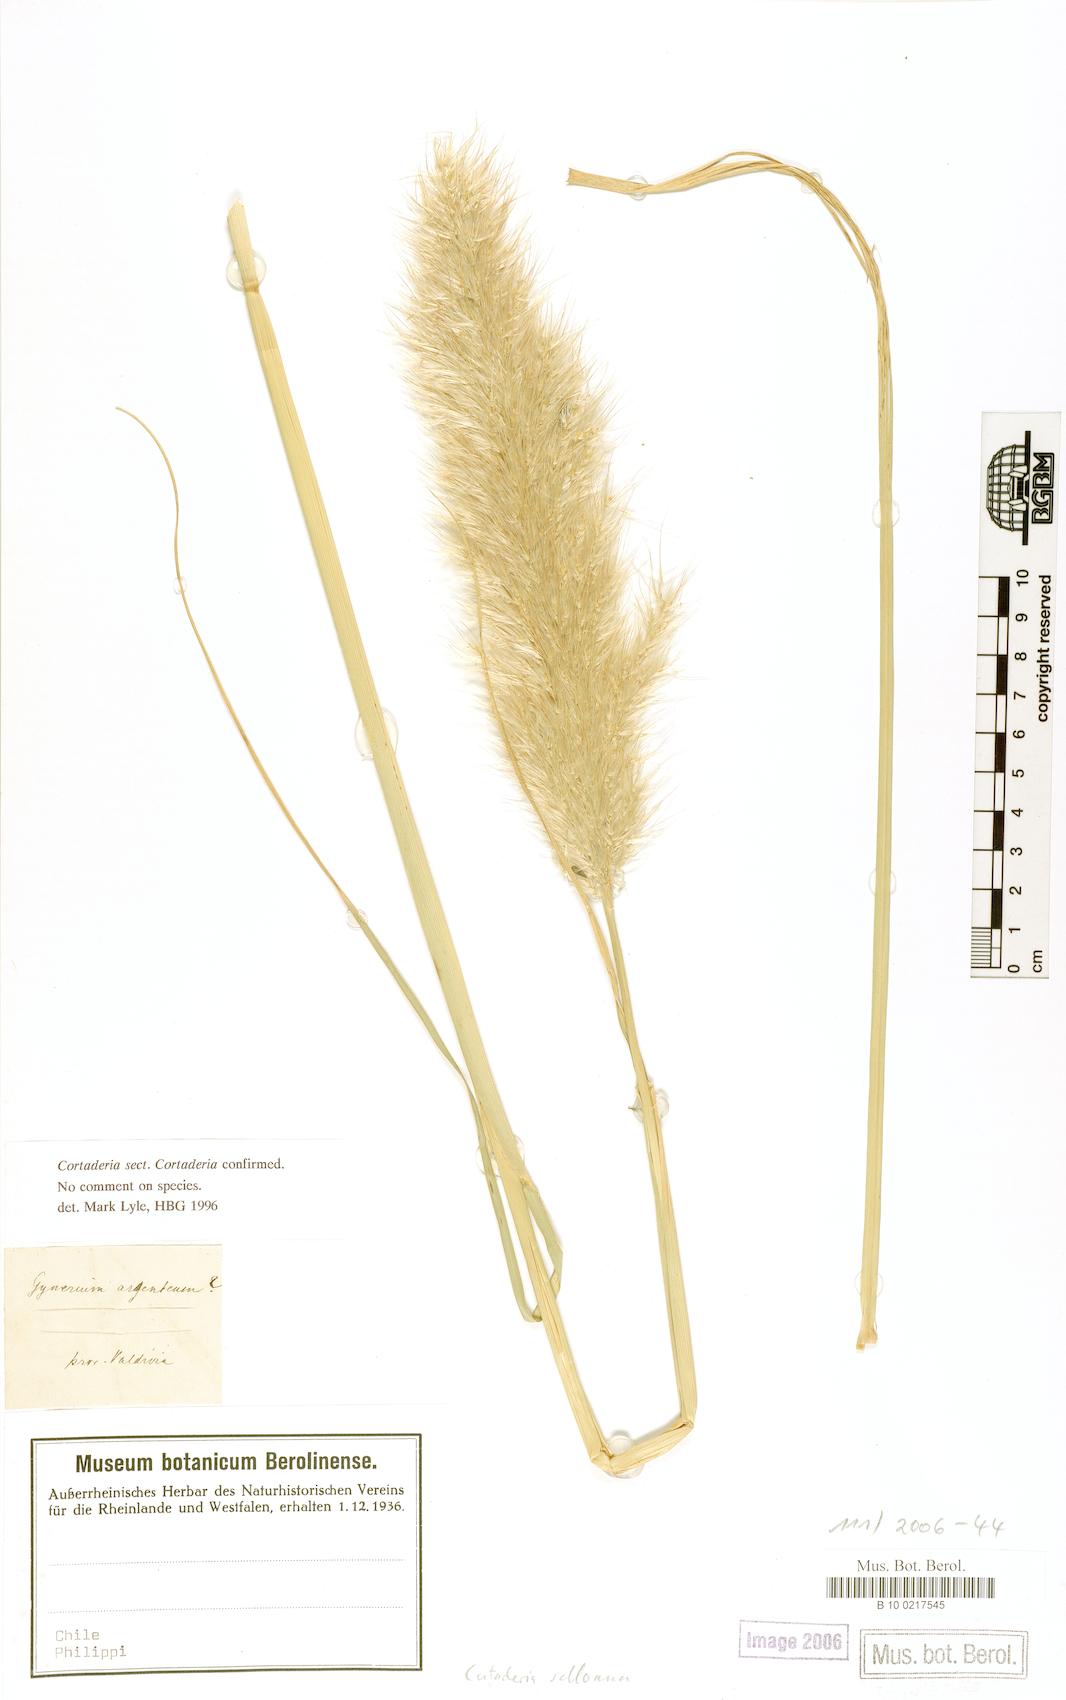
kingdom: Plantae
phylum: Tracheophyta
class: Liliopsida
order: Poales
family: Poaceae
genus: Cortaderia
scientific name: Cortaderia selloana
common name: Uruguayan pampas grass
